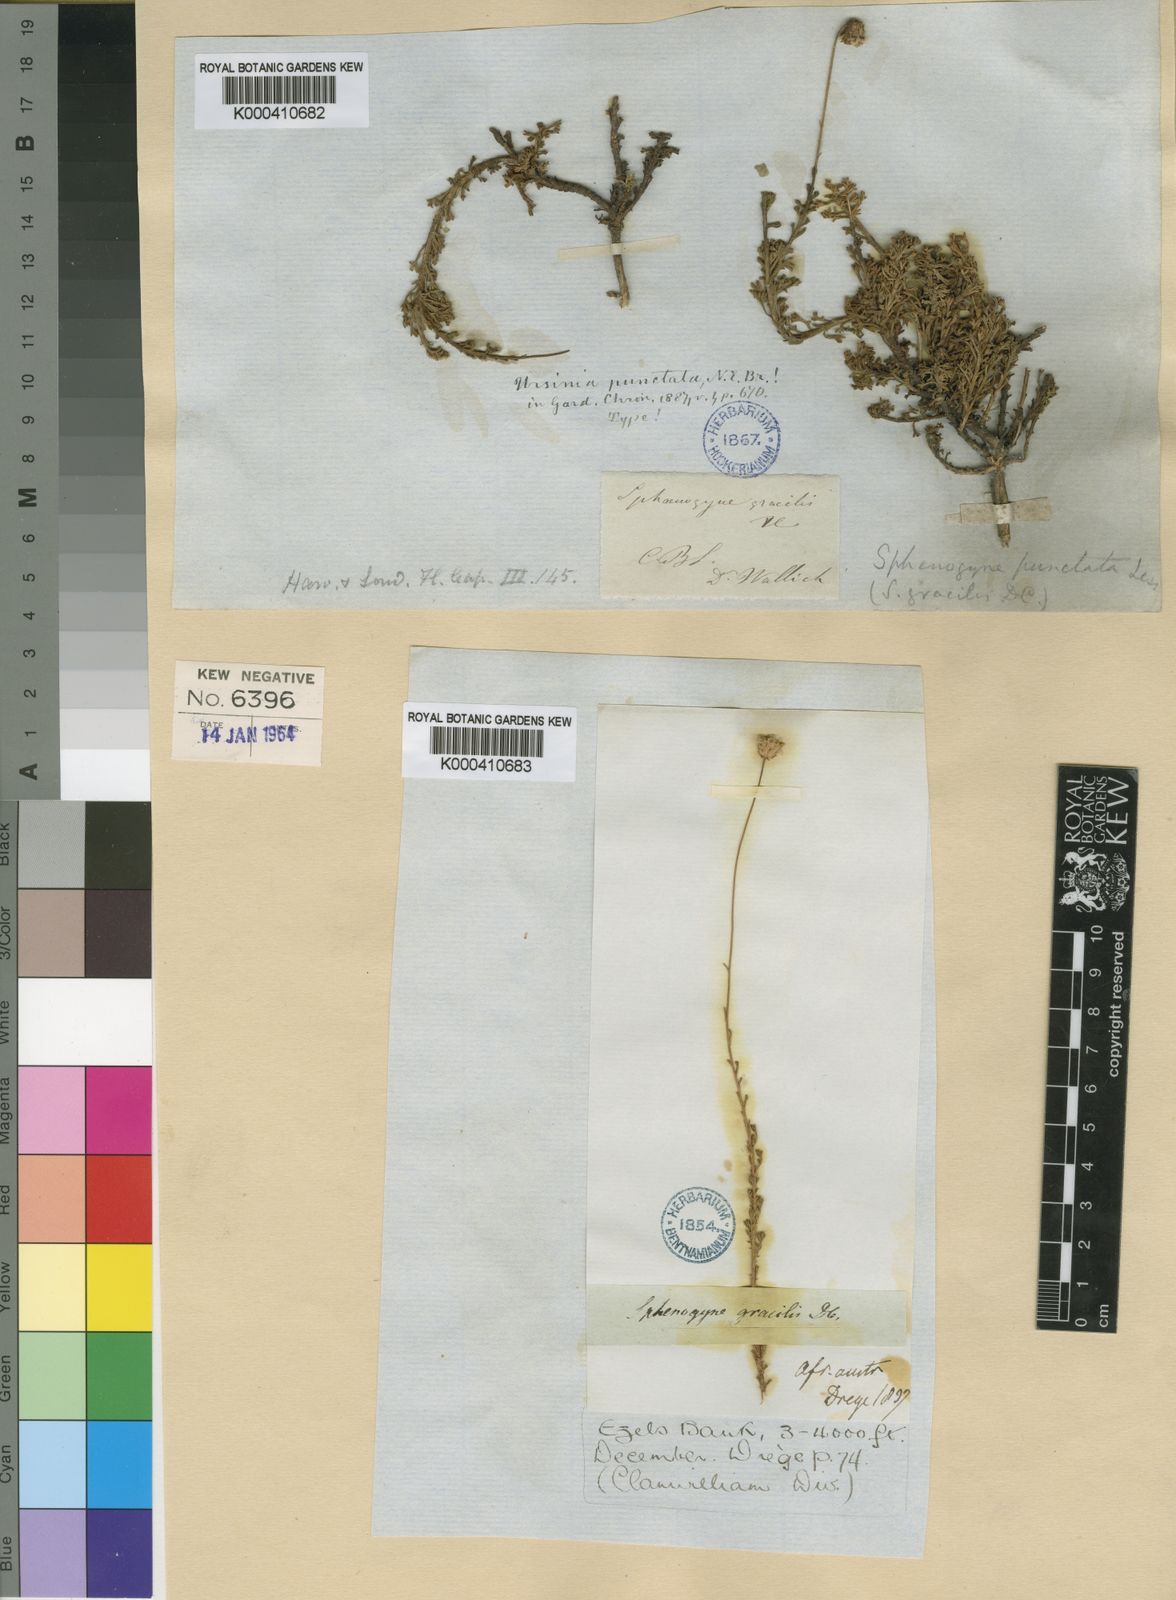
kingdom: Plantae
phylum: Tracheophyta
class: Magnoliopsida
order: Asterales
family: Asteraceae
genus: Ursinia
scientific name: Ursinia punctata
